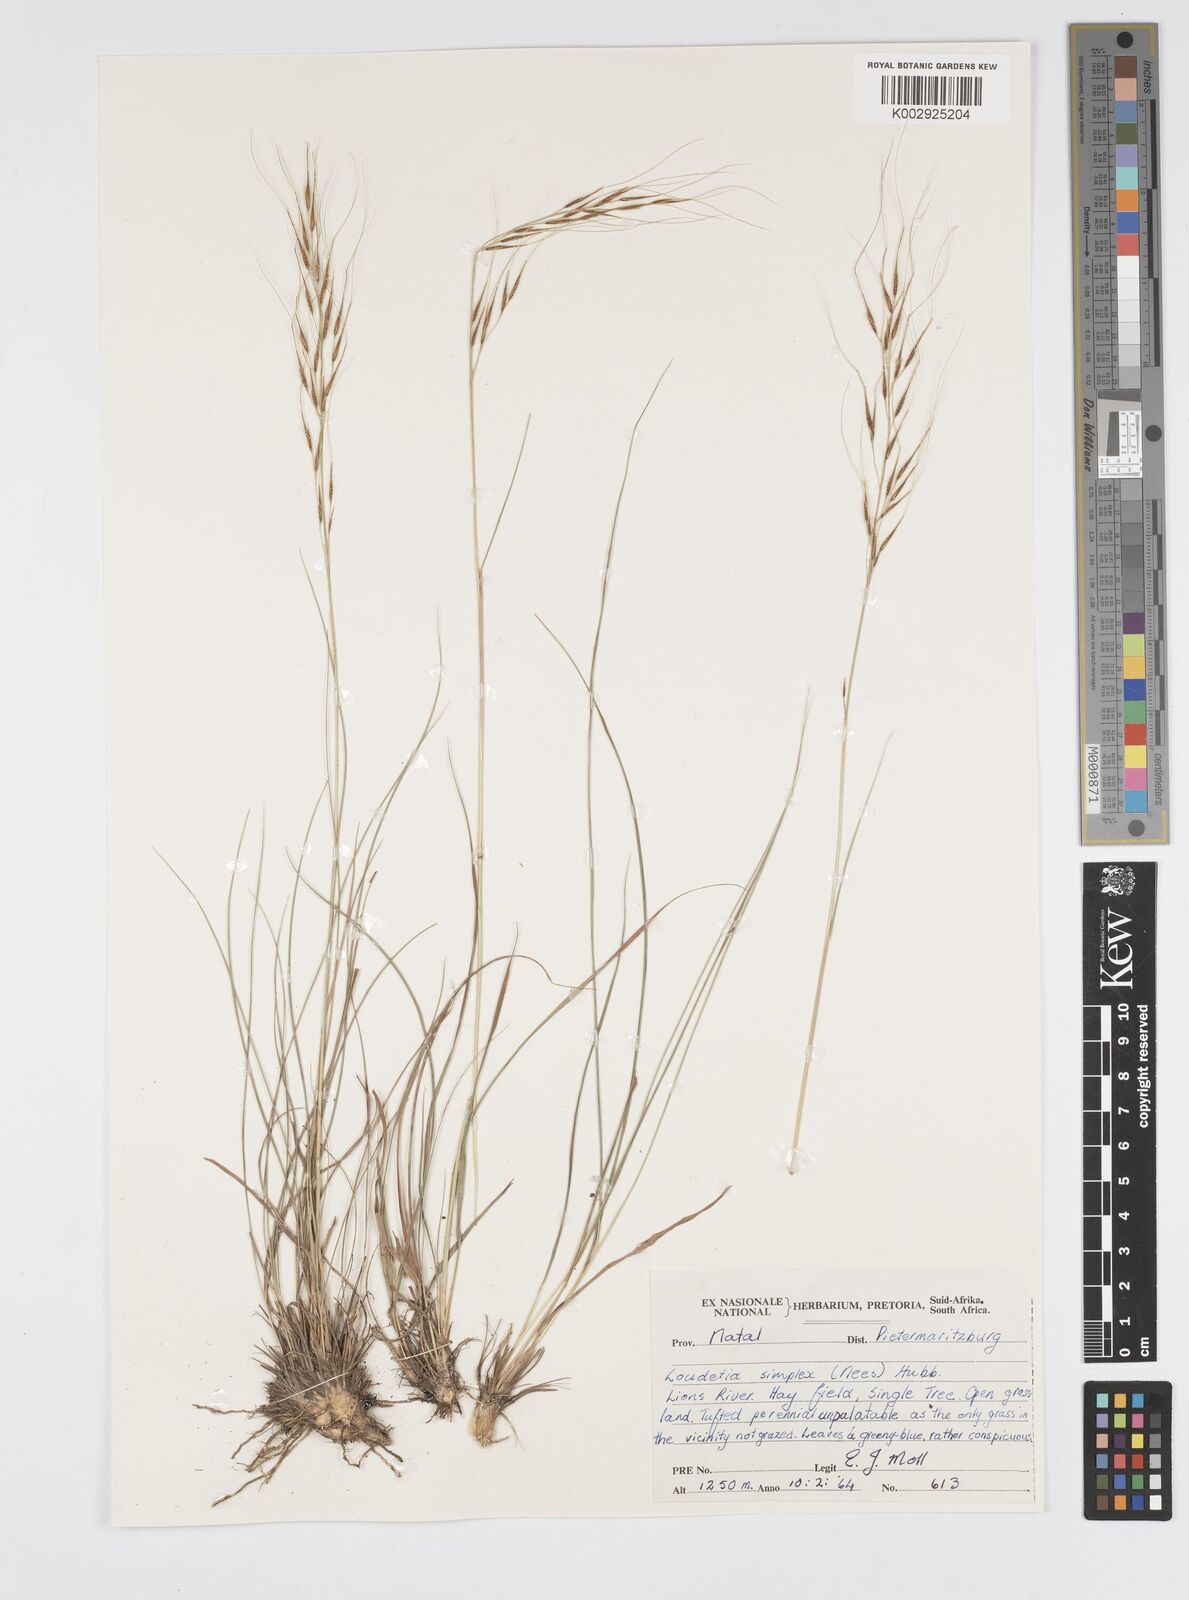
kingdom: Plantae
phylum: Tracheophyta
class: Liliopsida
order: Poales
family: Poaceae
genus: Loudetia
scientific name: Loudetia simplex
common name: Common russet grass
